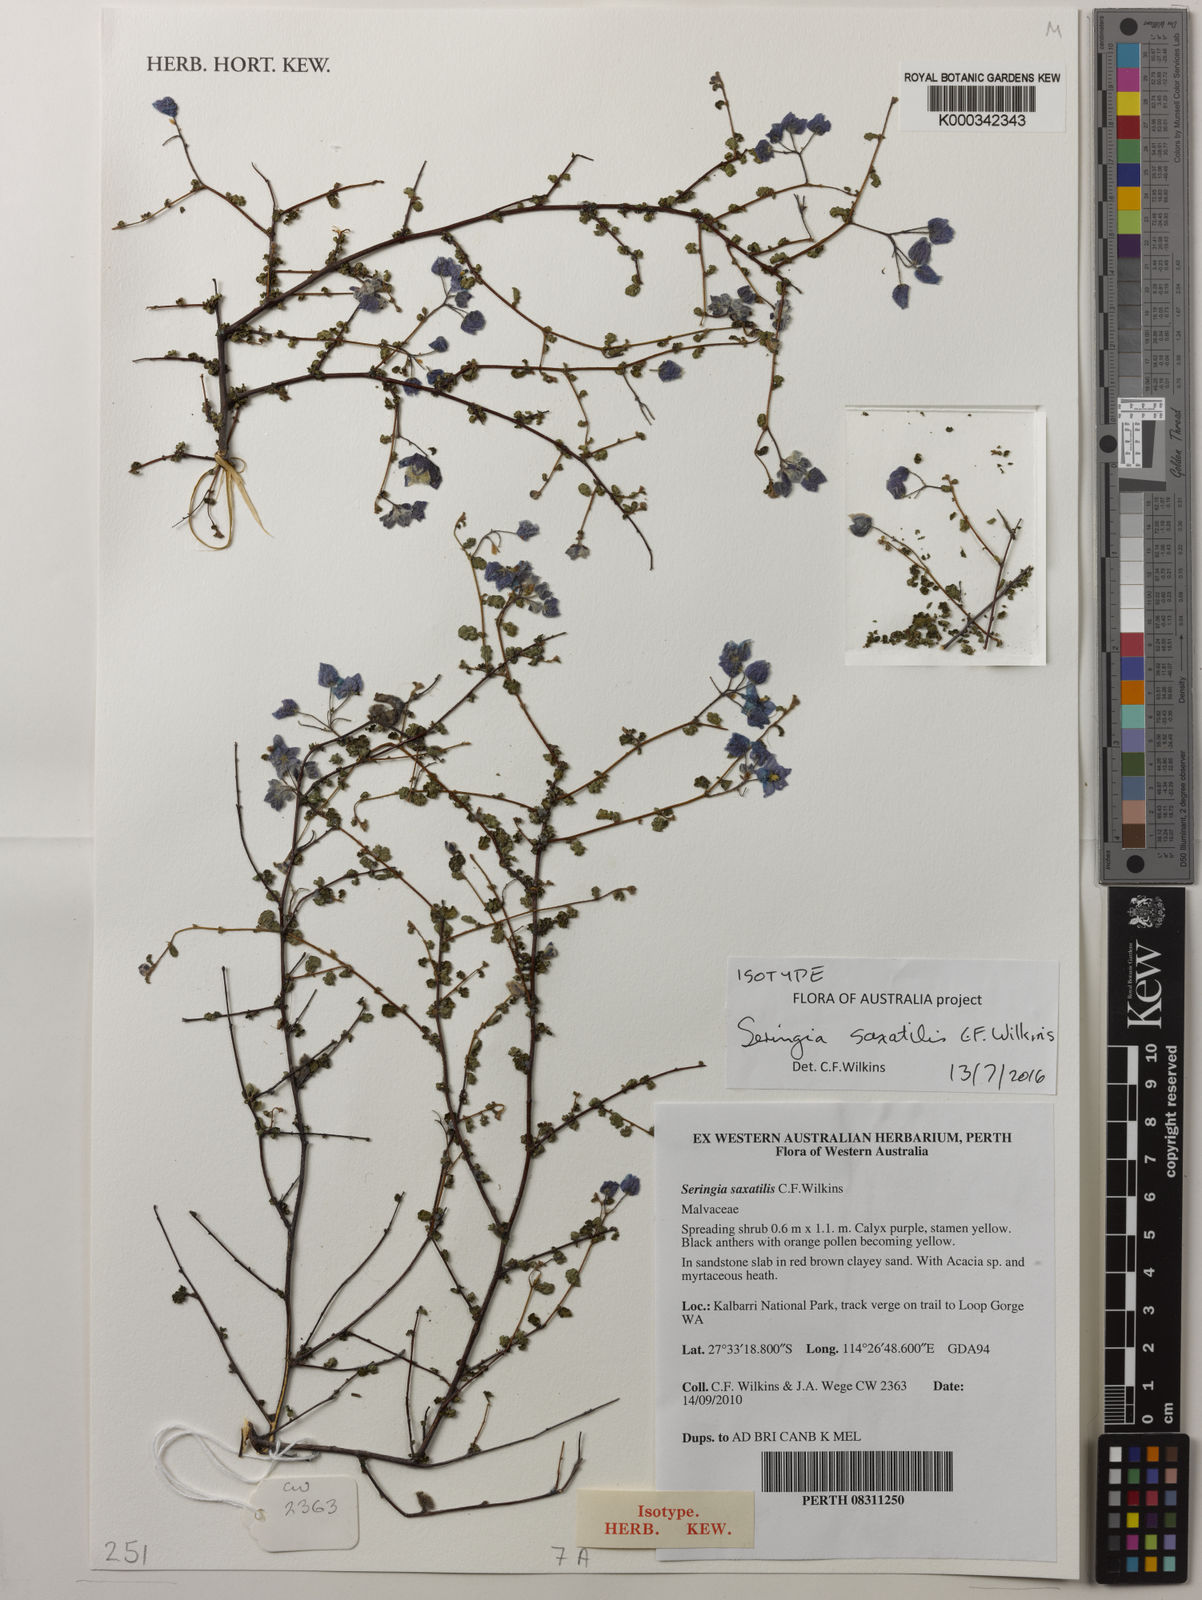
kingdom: Plantae
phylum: Tracheophyta
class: Magnoliopsida
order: Malvales
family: Malvaceae
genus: Seringia
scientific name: Seringia saxatilis
